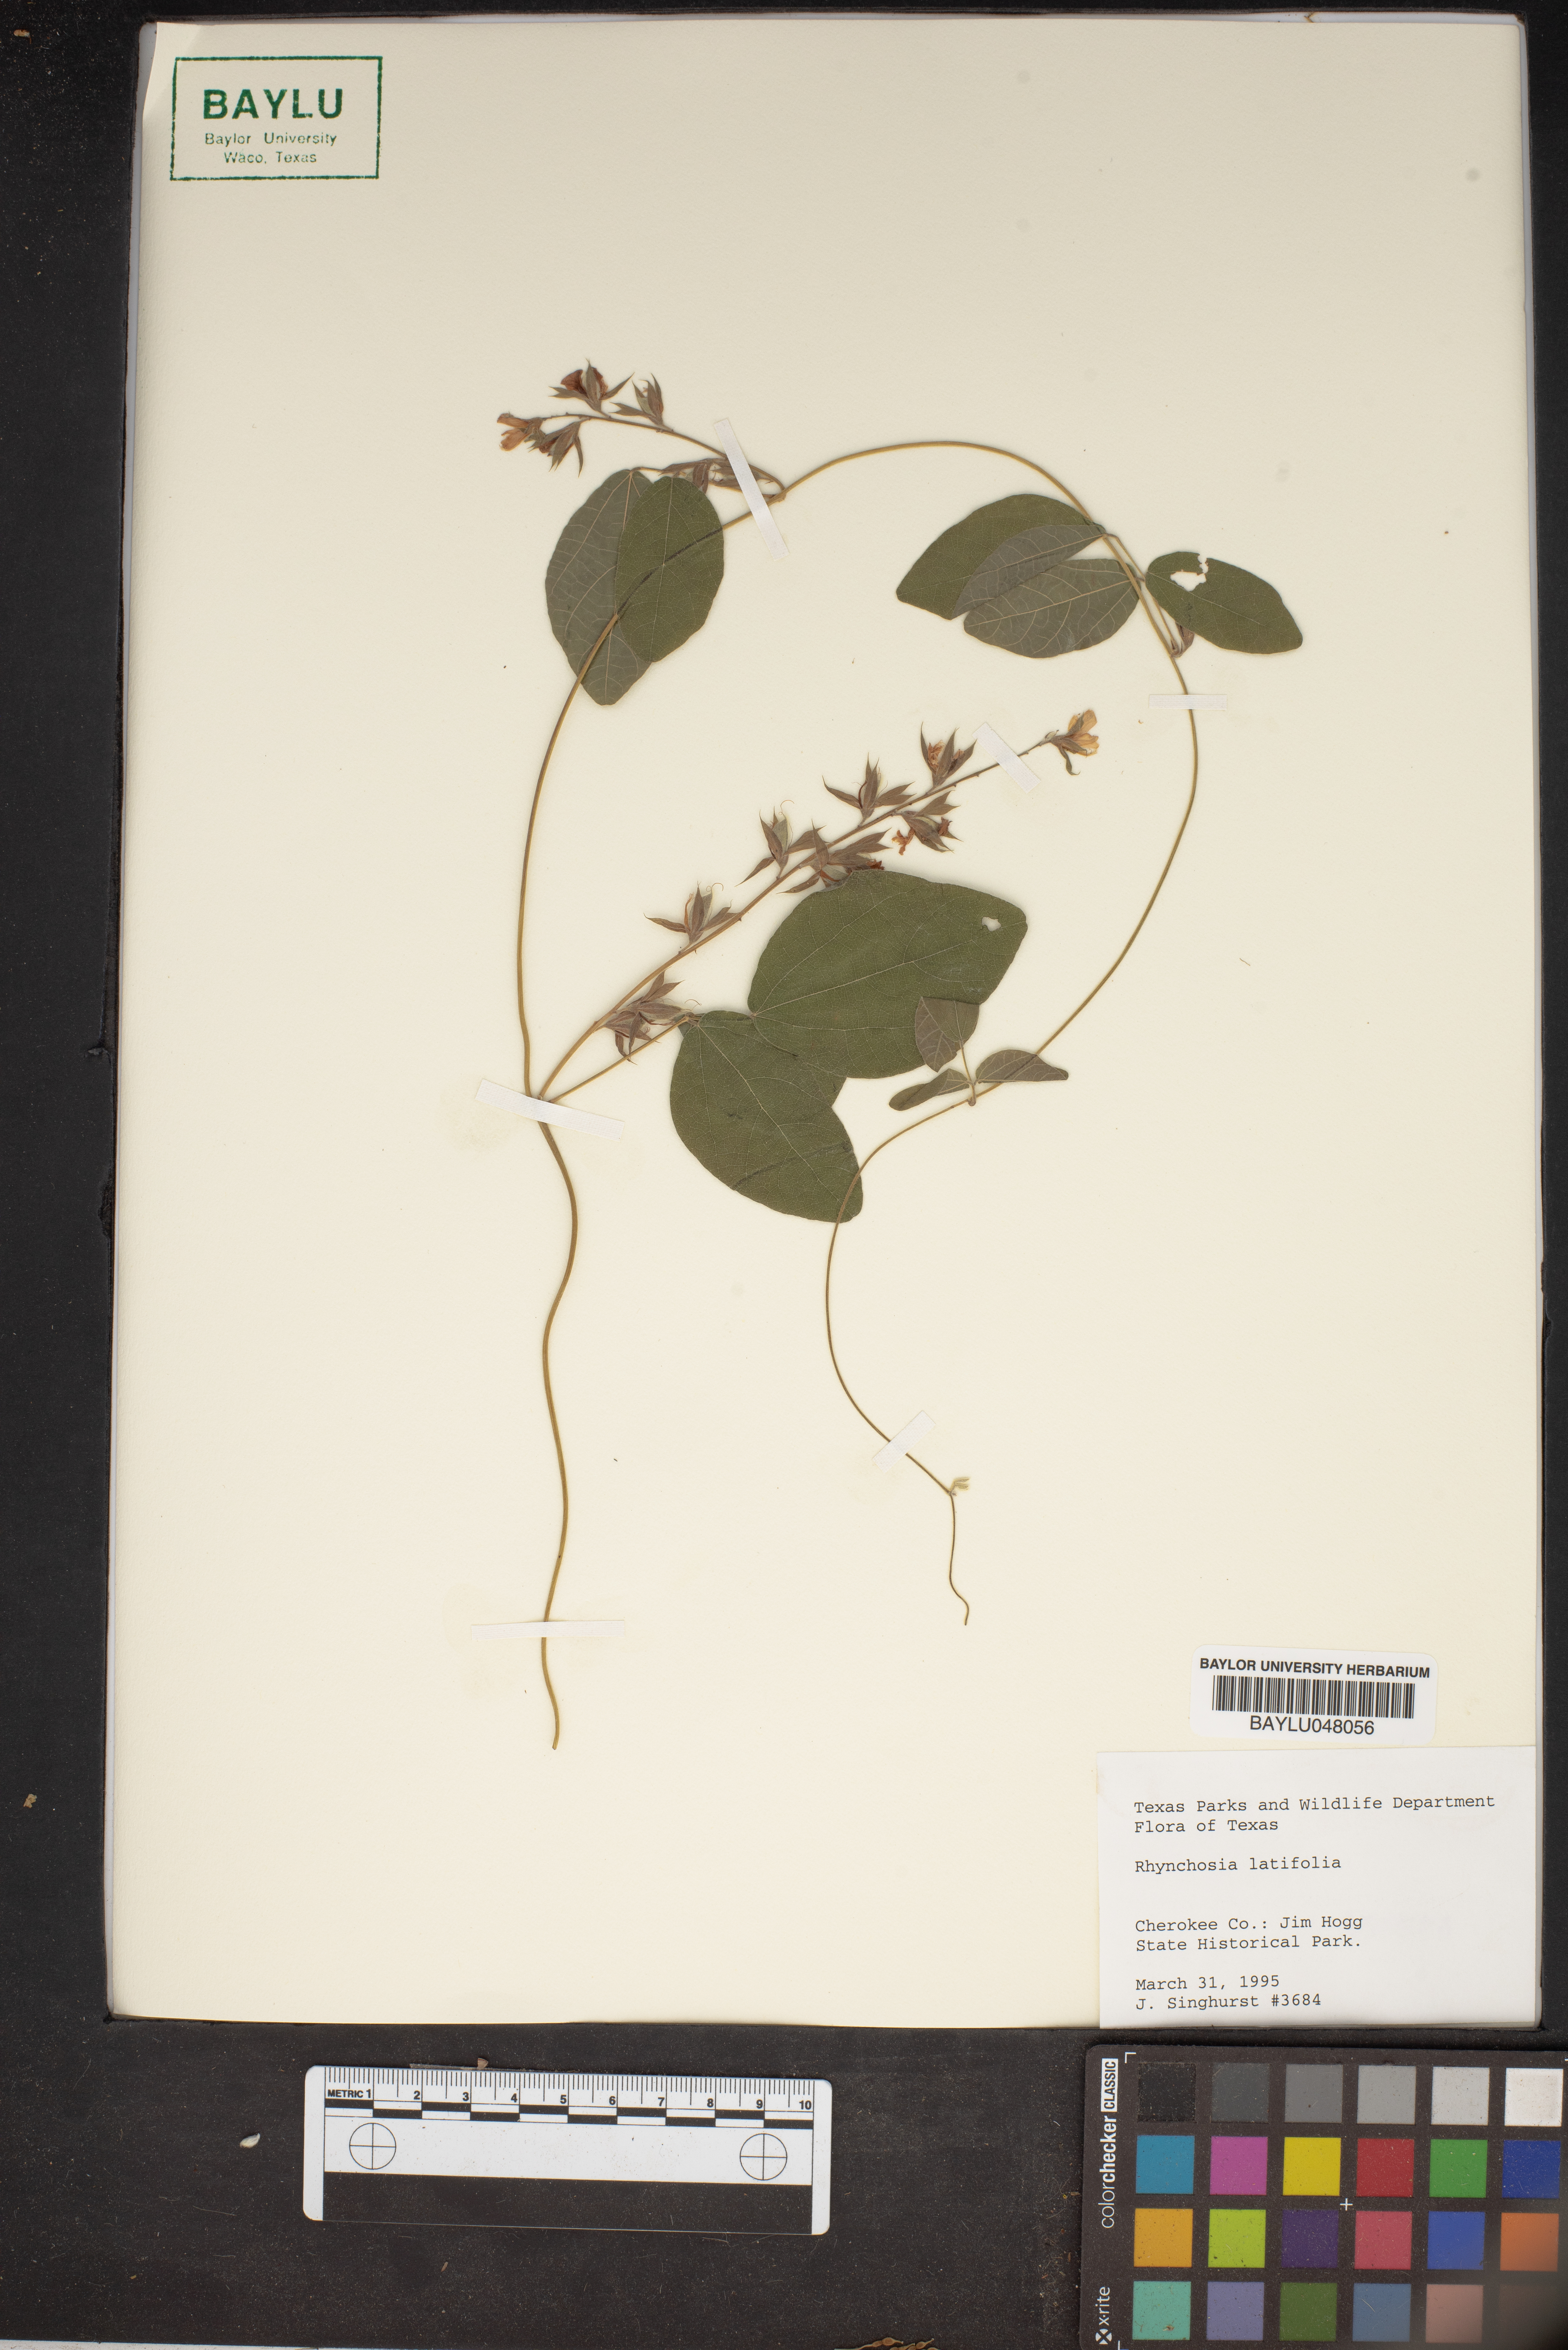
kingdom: Plantae
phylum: Tracheophyta
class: Magnoliopsida
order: Fabales
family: Fabaceae
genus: Rhynchosia
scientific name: Rhynchosia latifolia
